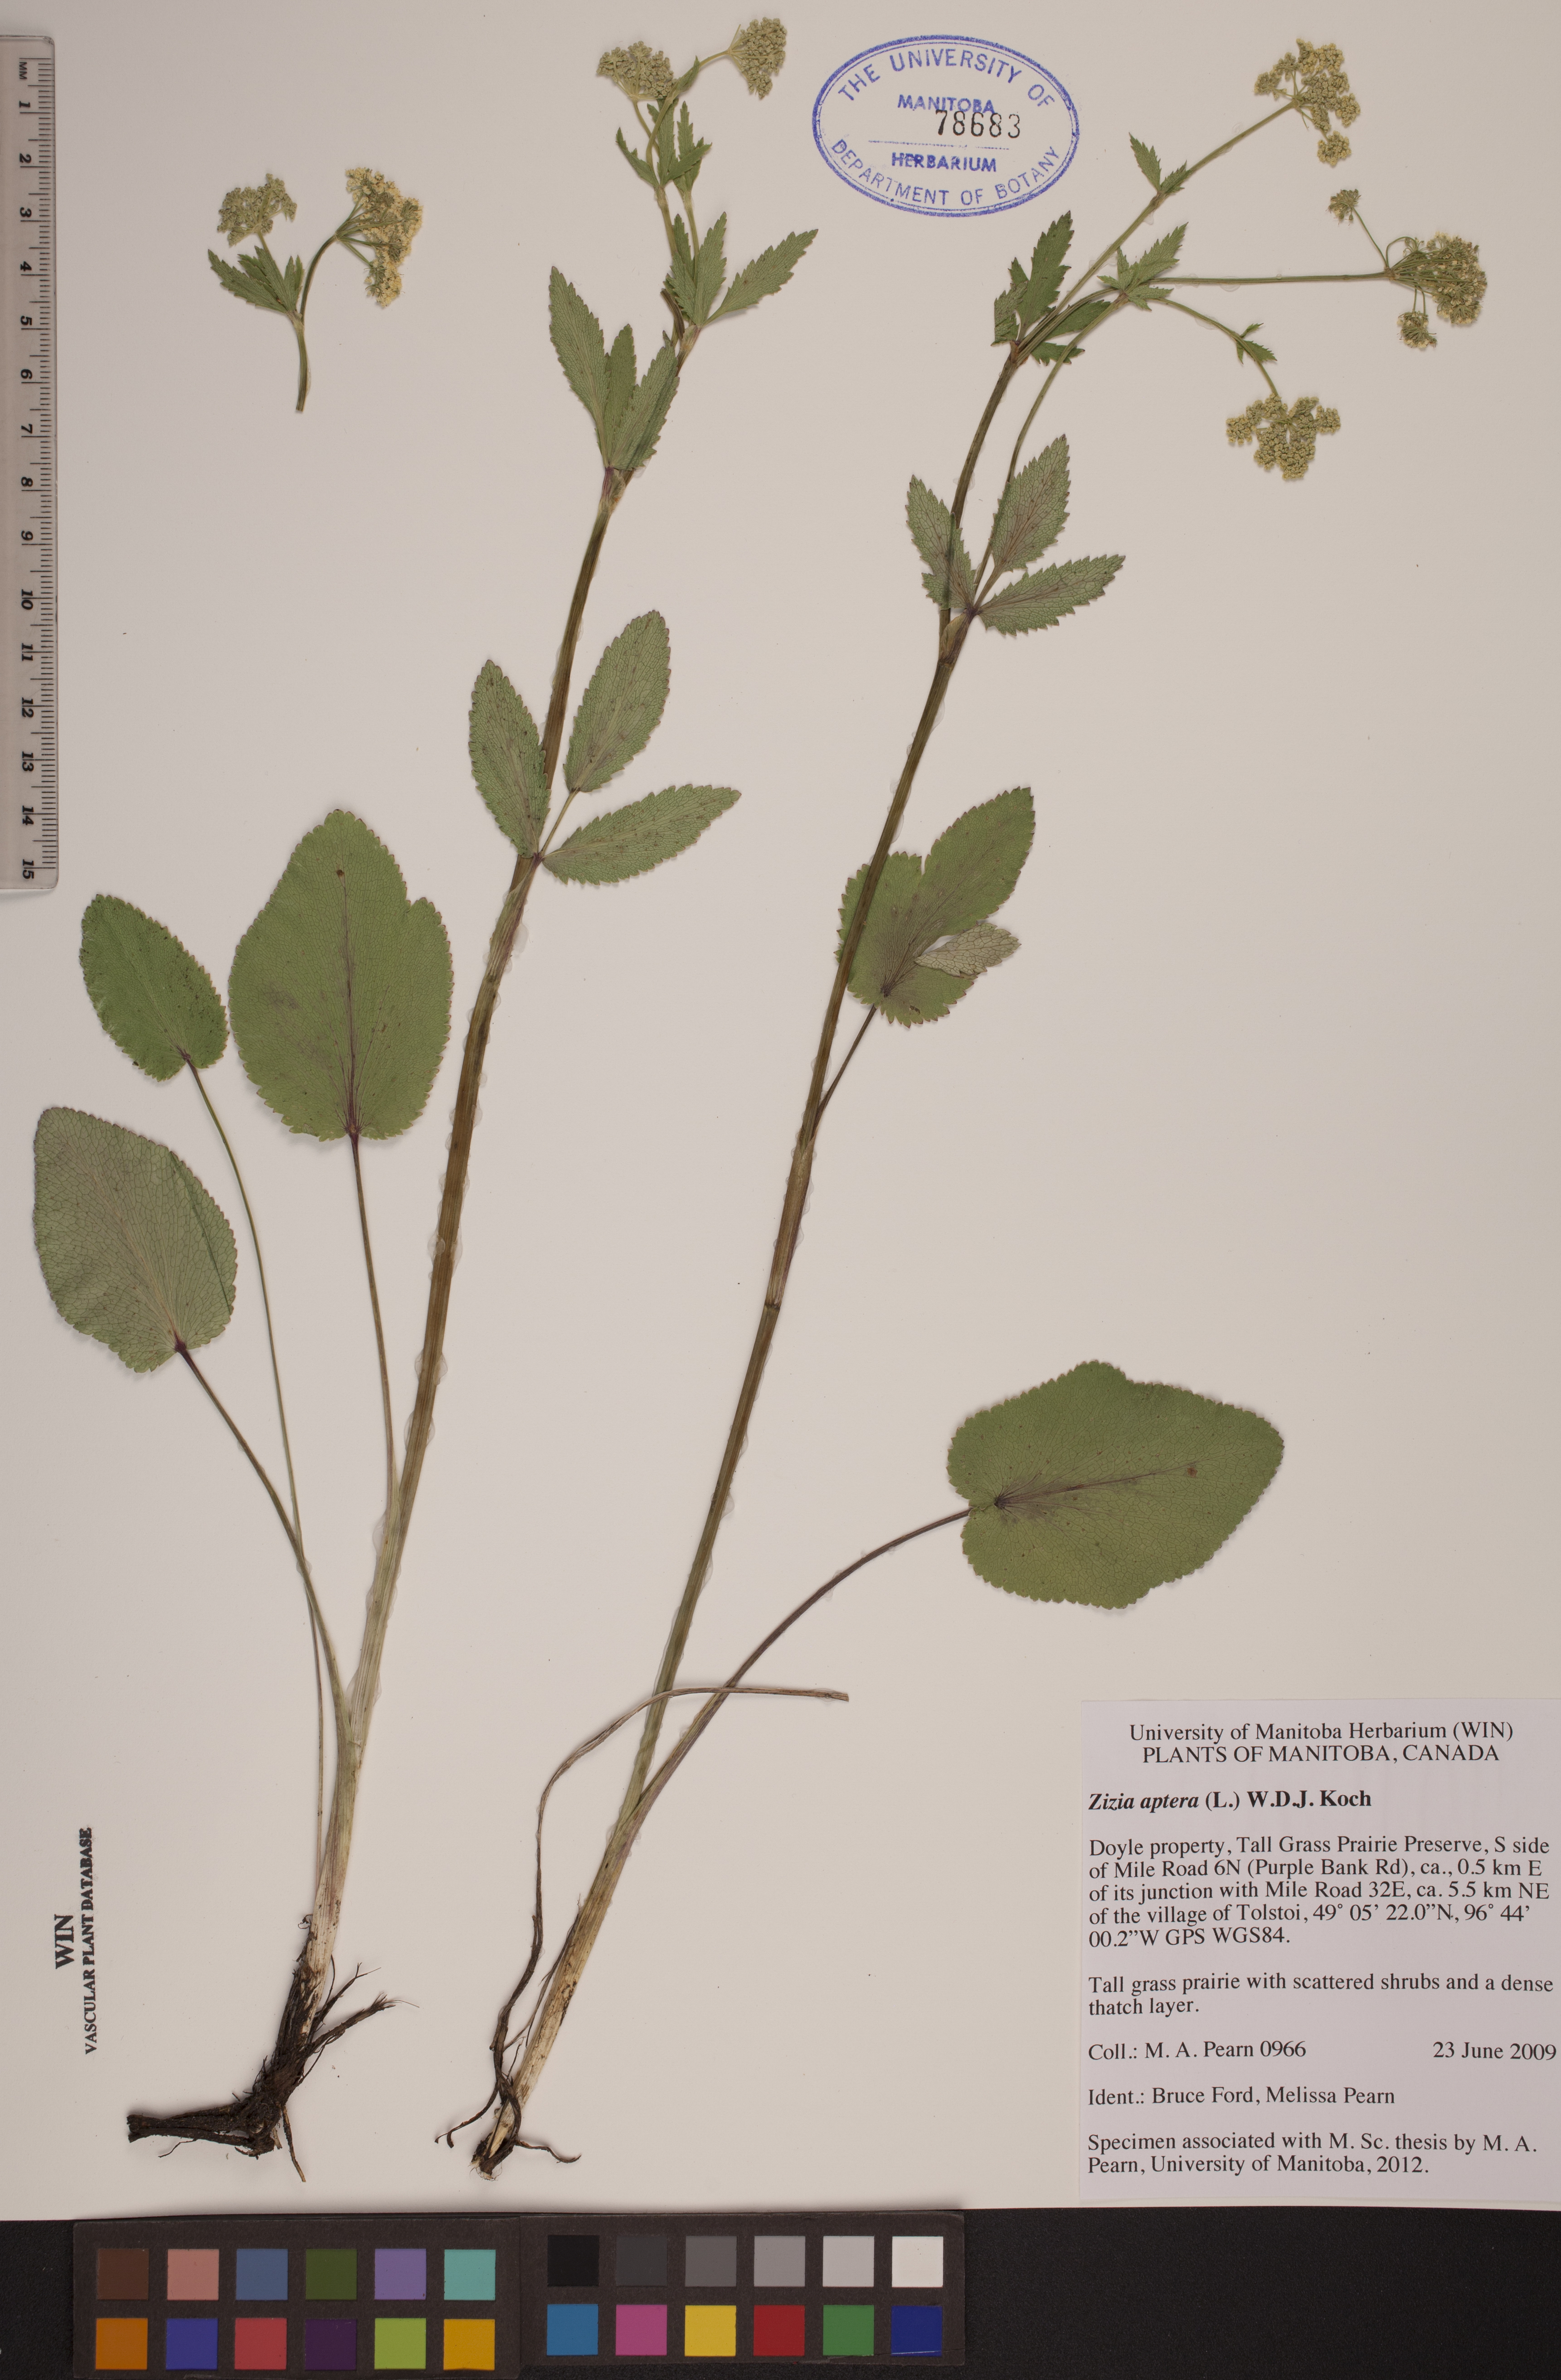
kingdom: Plantae
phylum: Tracheophyta
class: Magnoliopsida
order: Apiales
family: Apiaceae
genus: Zizia
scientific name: Zizia aptera
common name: Heart-leaved alexanders
